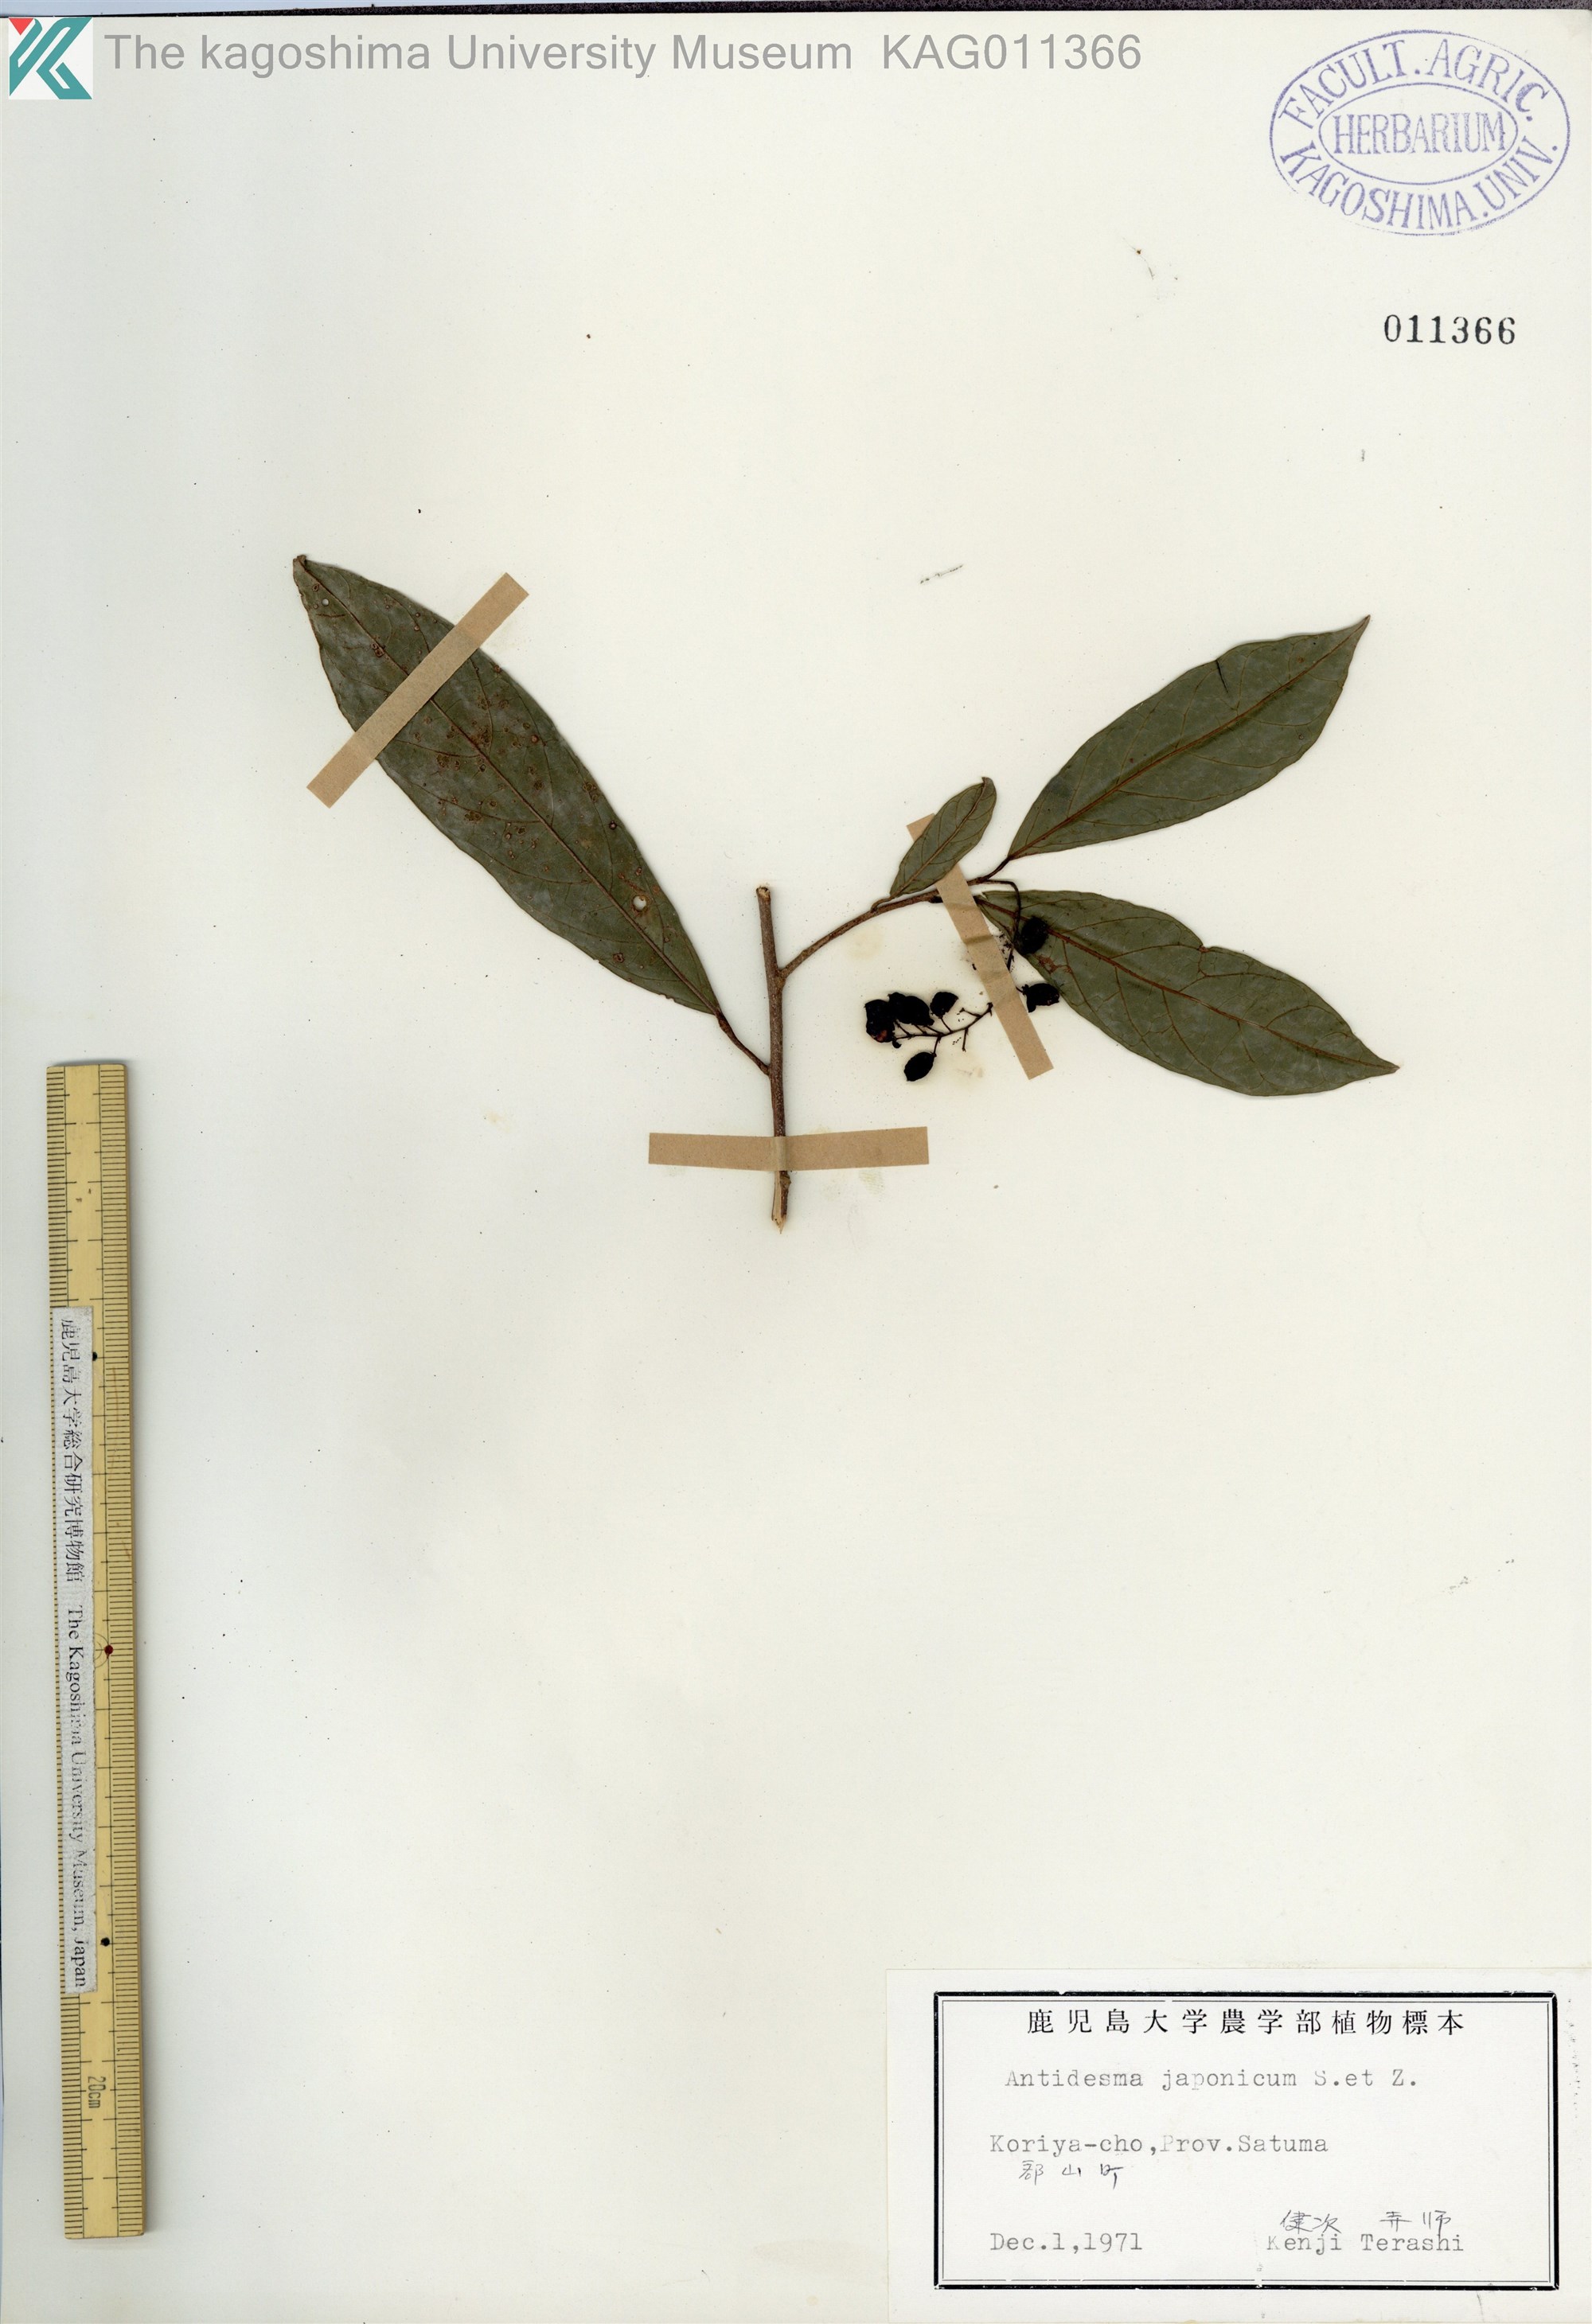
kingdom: Plantae
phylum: Tracheophyta
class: Magnoliopsida
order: Malpighiales
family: Phyllanthaceae
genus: Antidesma
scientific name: Antidesma japonicum
